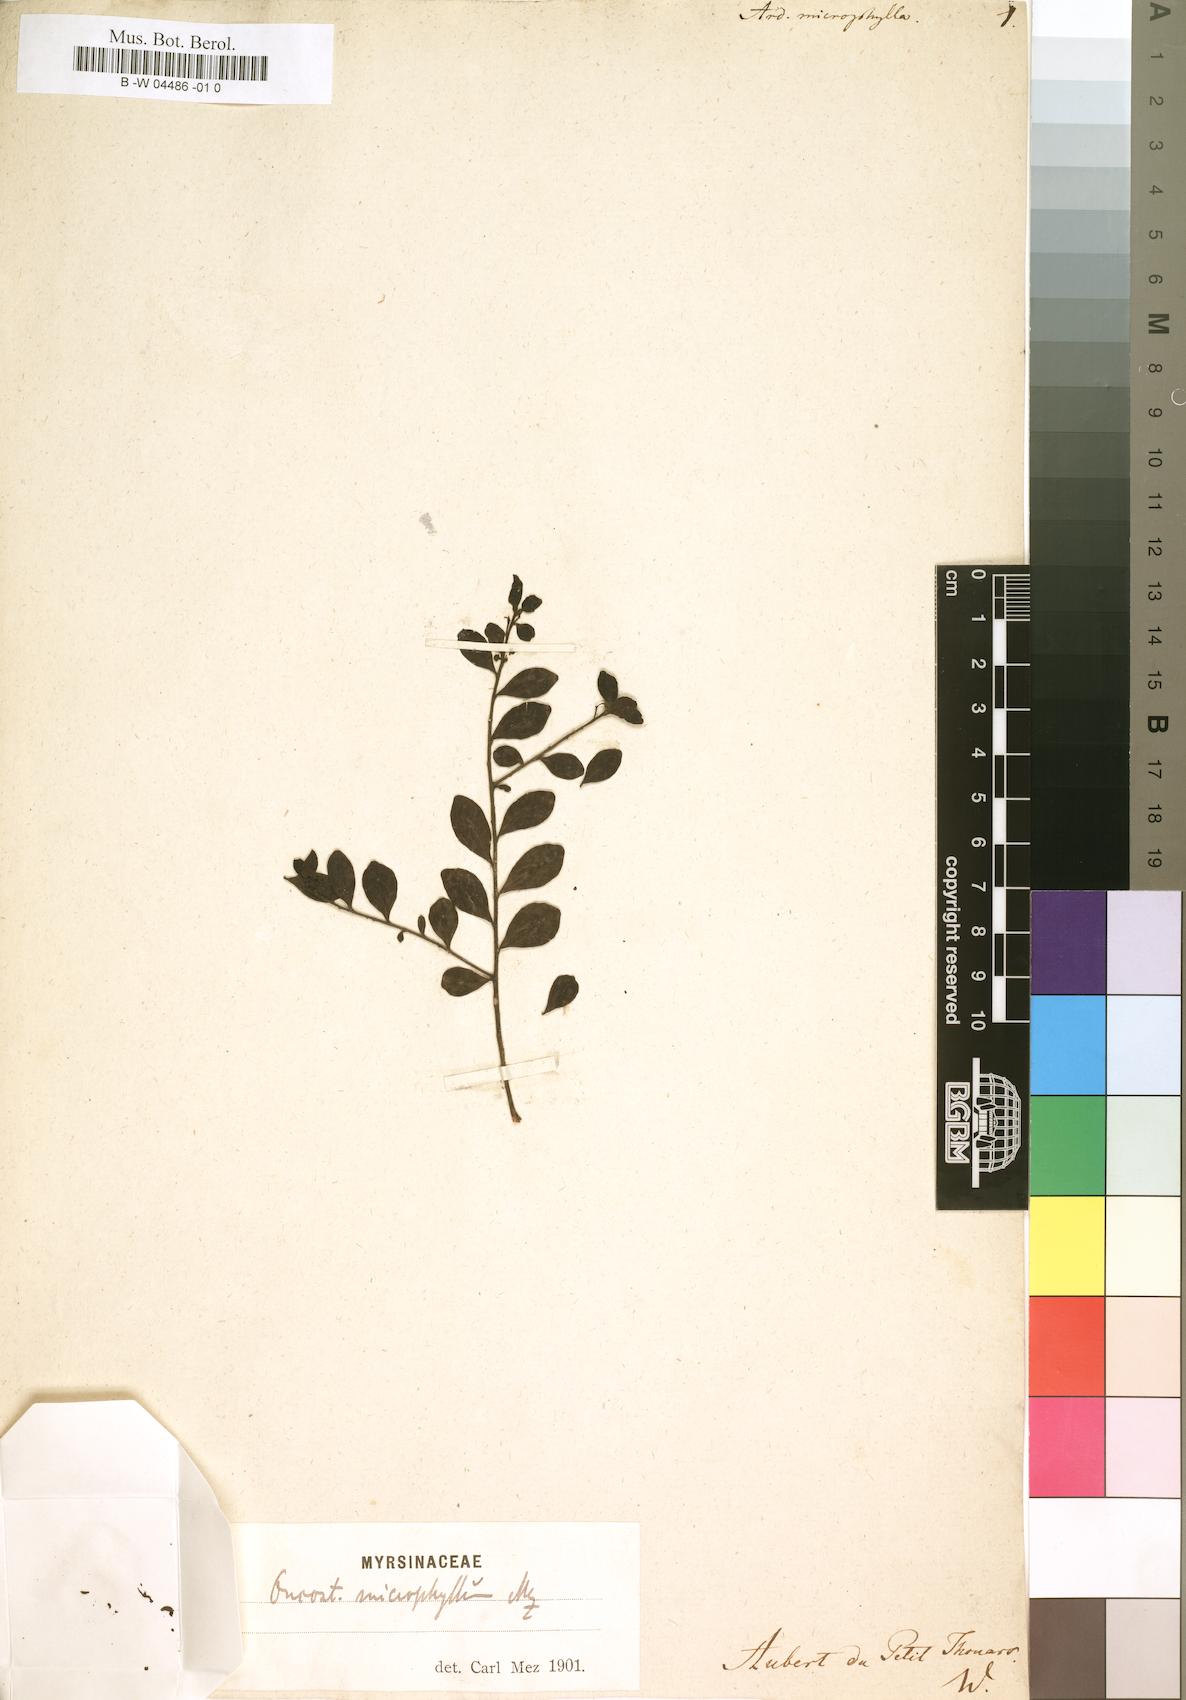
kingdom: Plantae
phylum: Tracheophyta
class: Magnoliopsida
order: Ericales
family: Primulaceae
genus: Oncostemum
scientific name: Oncostemum microphyllum
